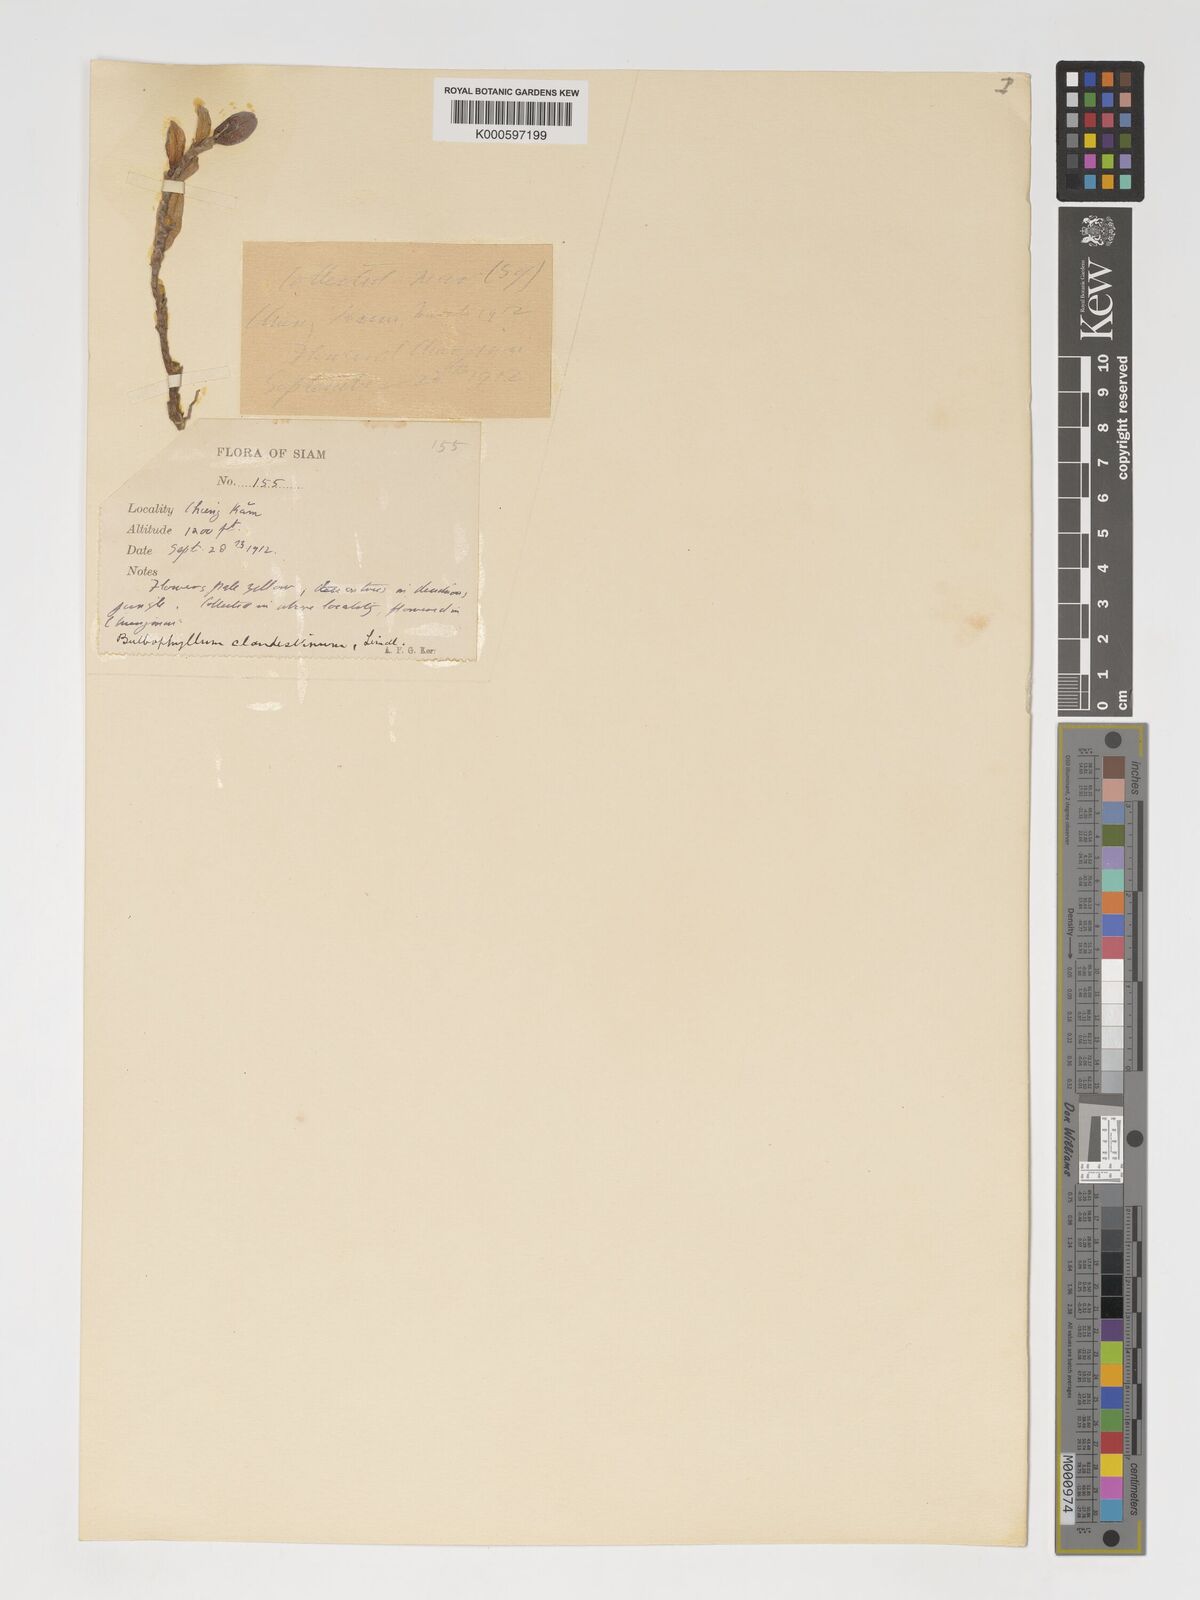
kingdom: Plantae
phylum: Tracheophyta
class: Liliopsida
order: Asparagales
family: Orchidaceae
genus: Bulbophyllum
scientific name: Bulbophyllum clandestinum
